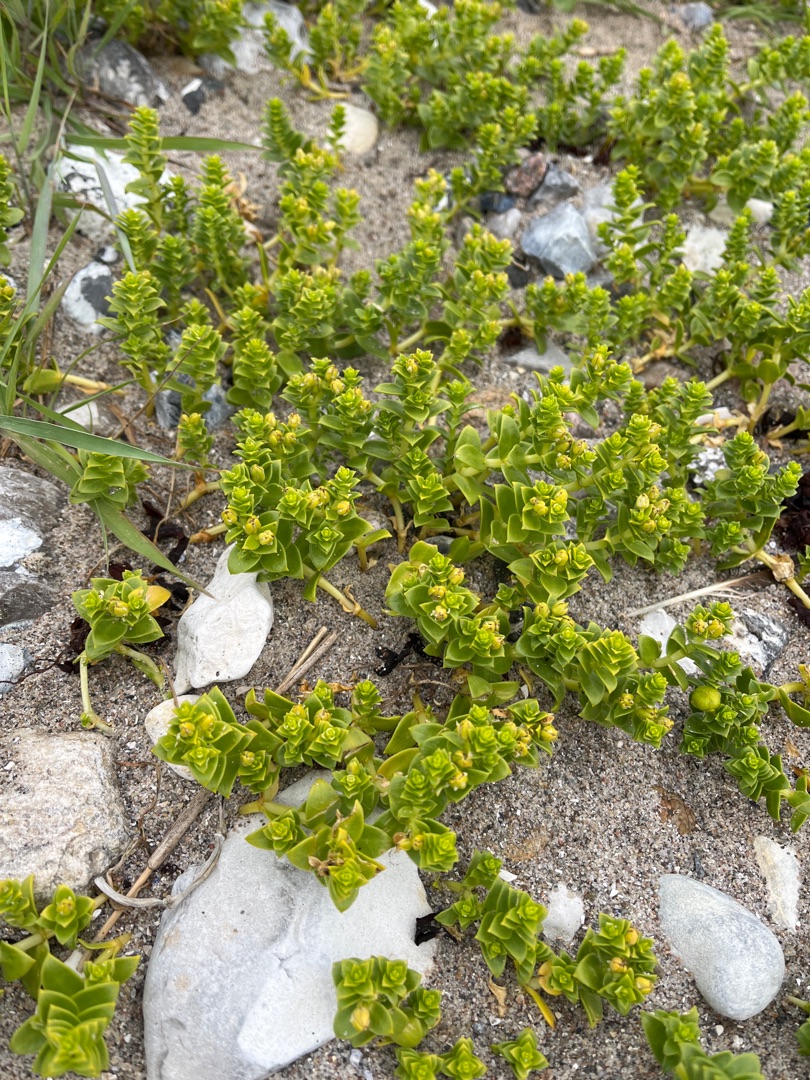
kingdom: Plantae
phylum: Tracheophyta
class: Magnoliopsida
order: Caryophyllales
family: Caryophyllaceae
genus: Honckenya
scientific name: Honckenya peploides
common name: Strandarve
